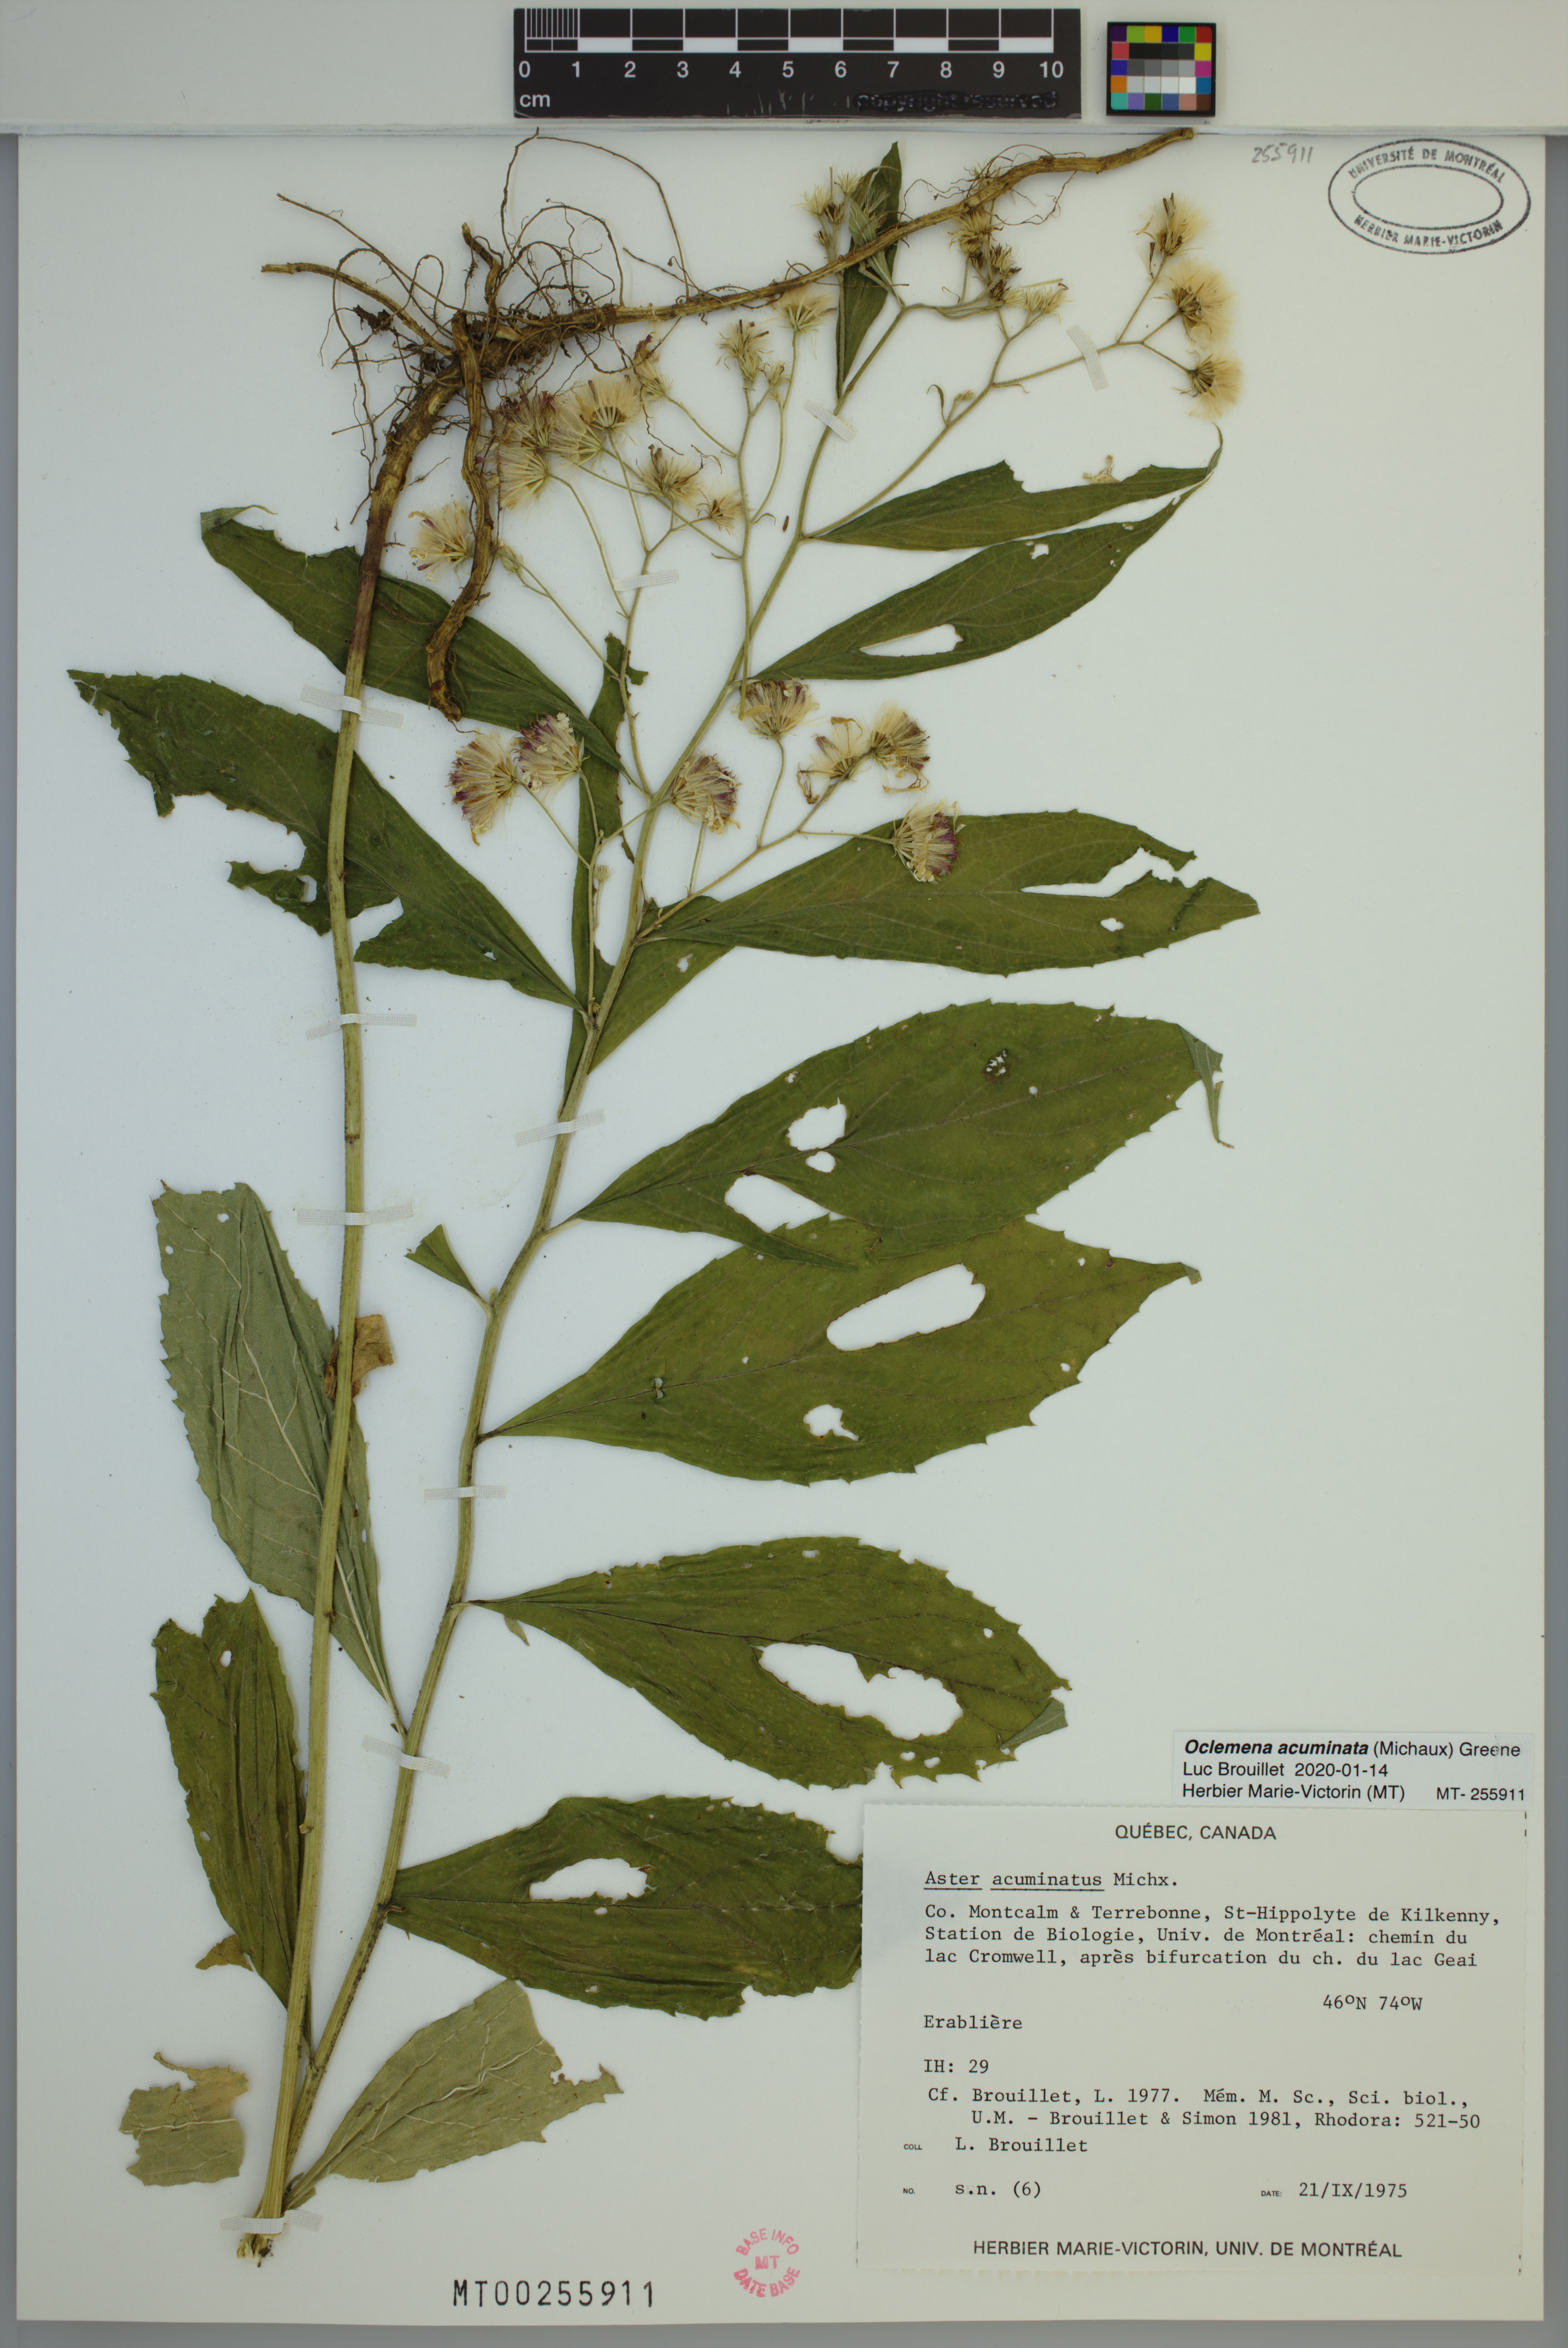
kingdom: Plantae
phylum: Tracheophyta
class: Magnoliopsida
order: Asterales
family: Asteraceae
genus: Oclemena
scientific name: Oclemena acuminata
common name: Mountain aster
